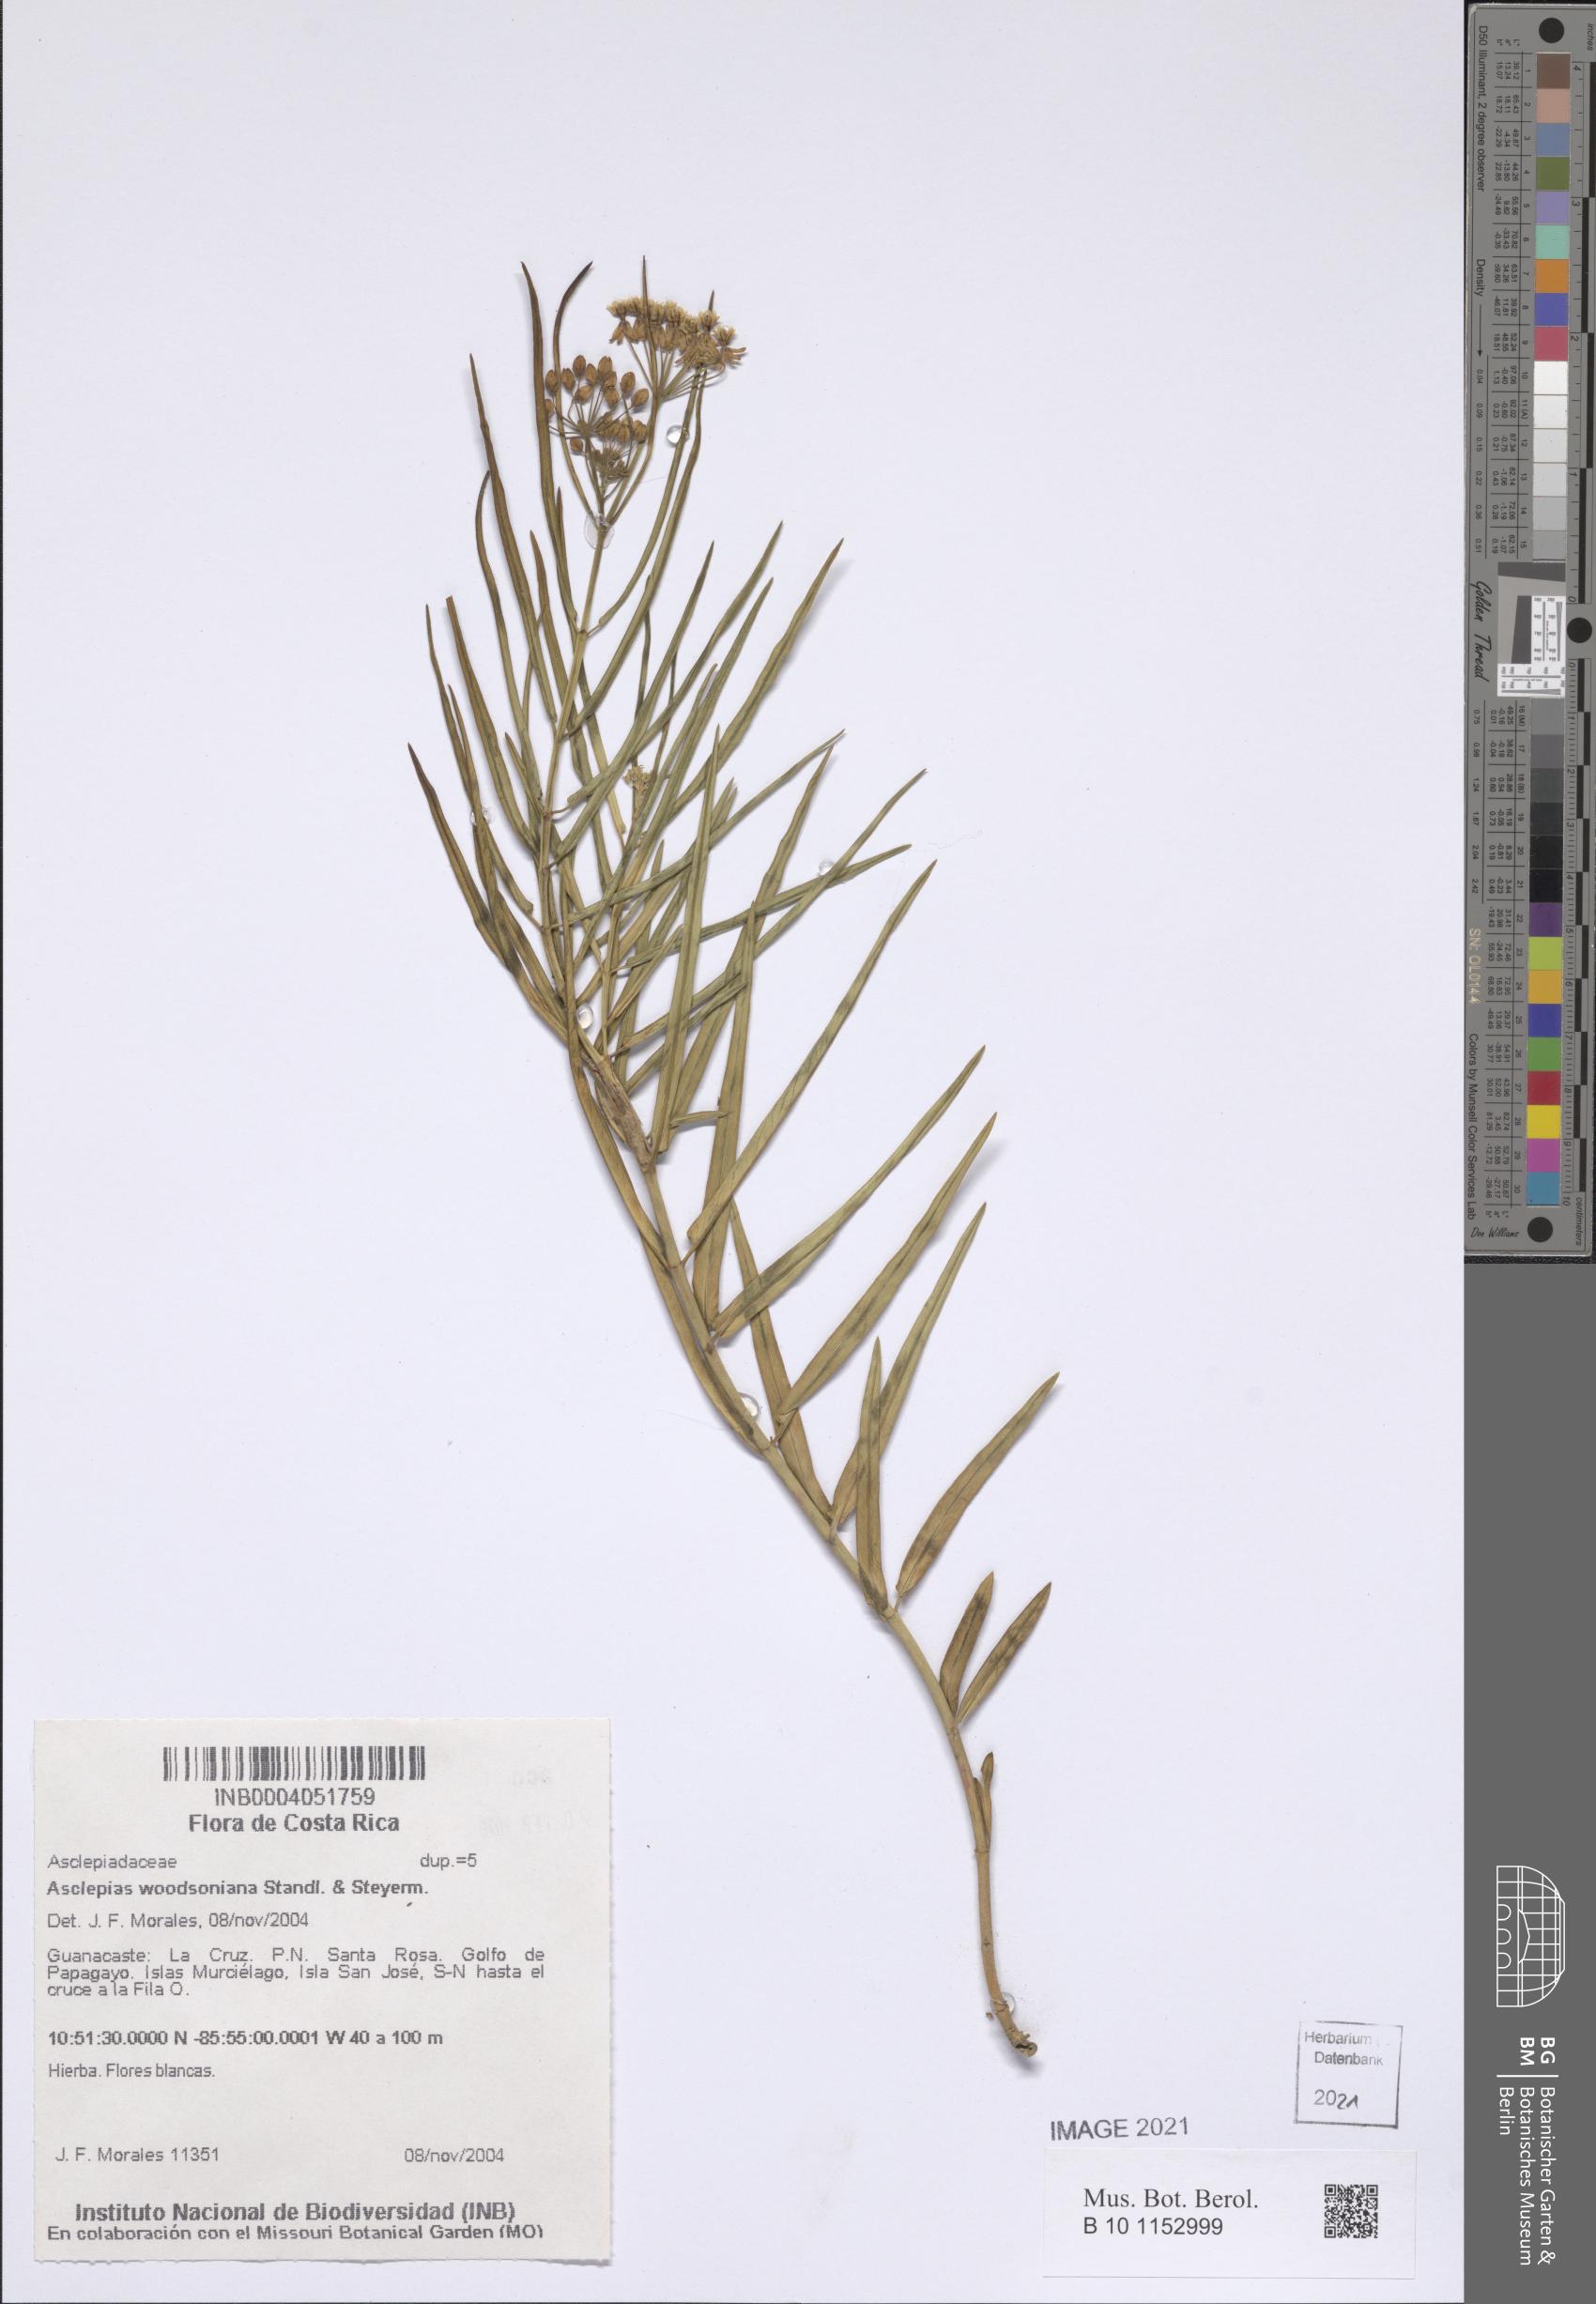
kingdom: Plantae
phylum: Tracheophyta
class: Magnoliopsida
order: Gentianales
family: Apocynaceae
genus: Asclepias
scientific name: Asclepias woodsoniana
